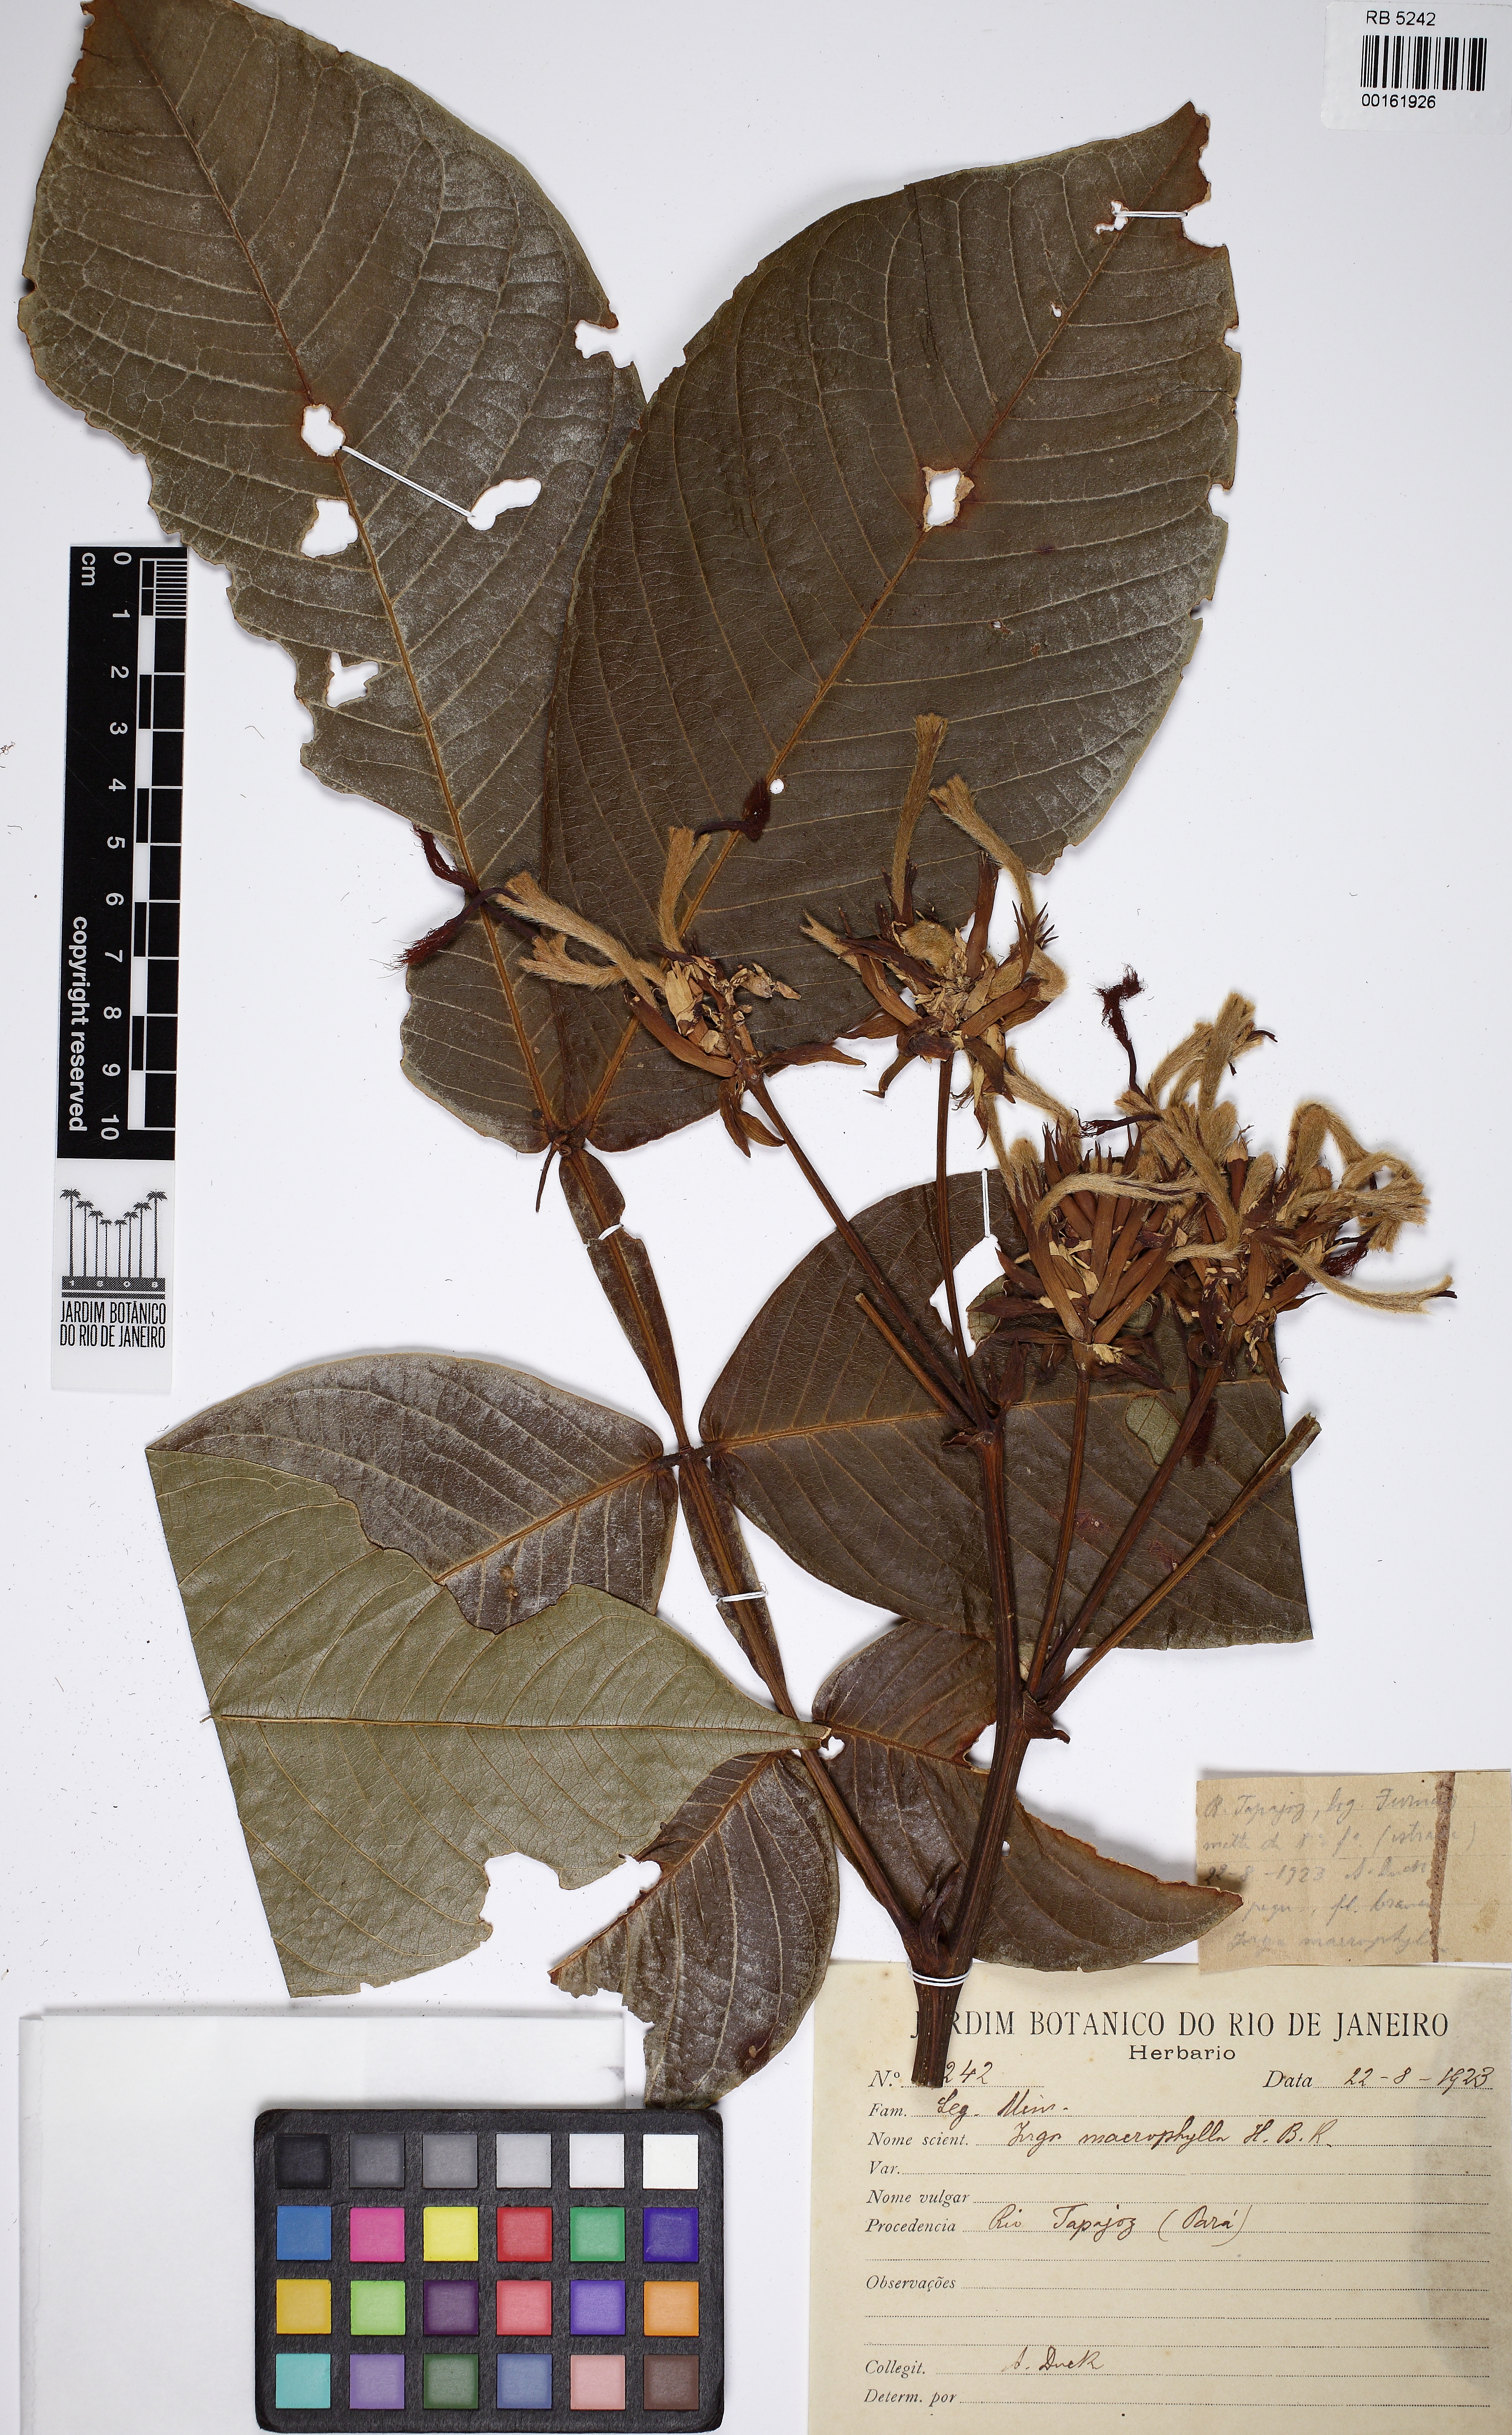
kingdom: Plantae
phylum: Tracheophyta
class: Magnoliopsida
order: Fabales
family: Fabaceae
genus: Inga
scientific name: Inga macrophylla
